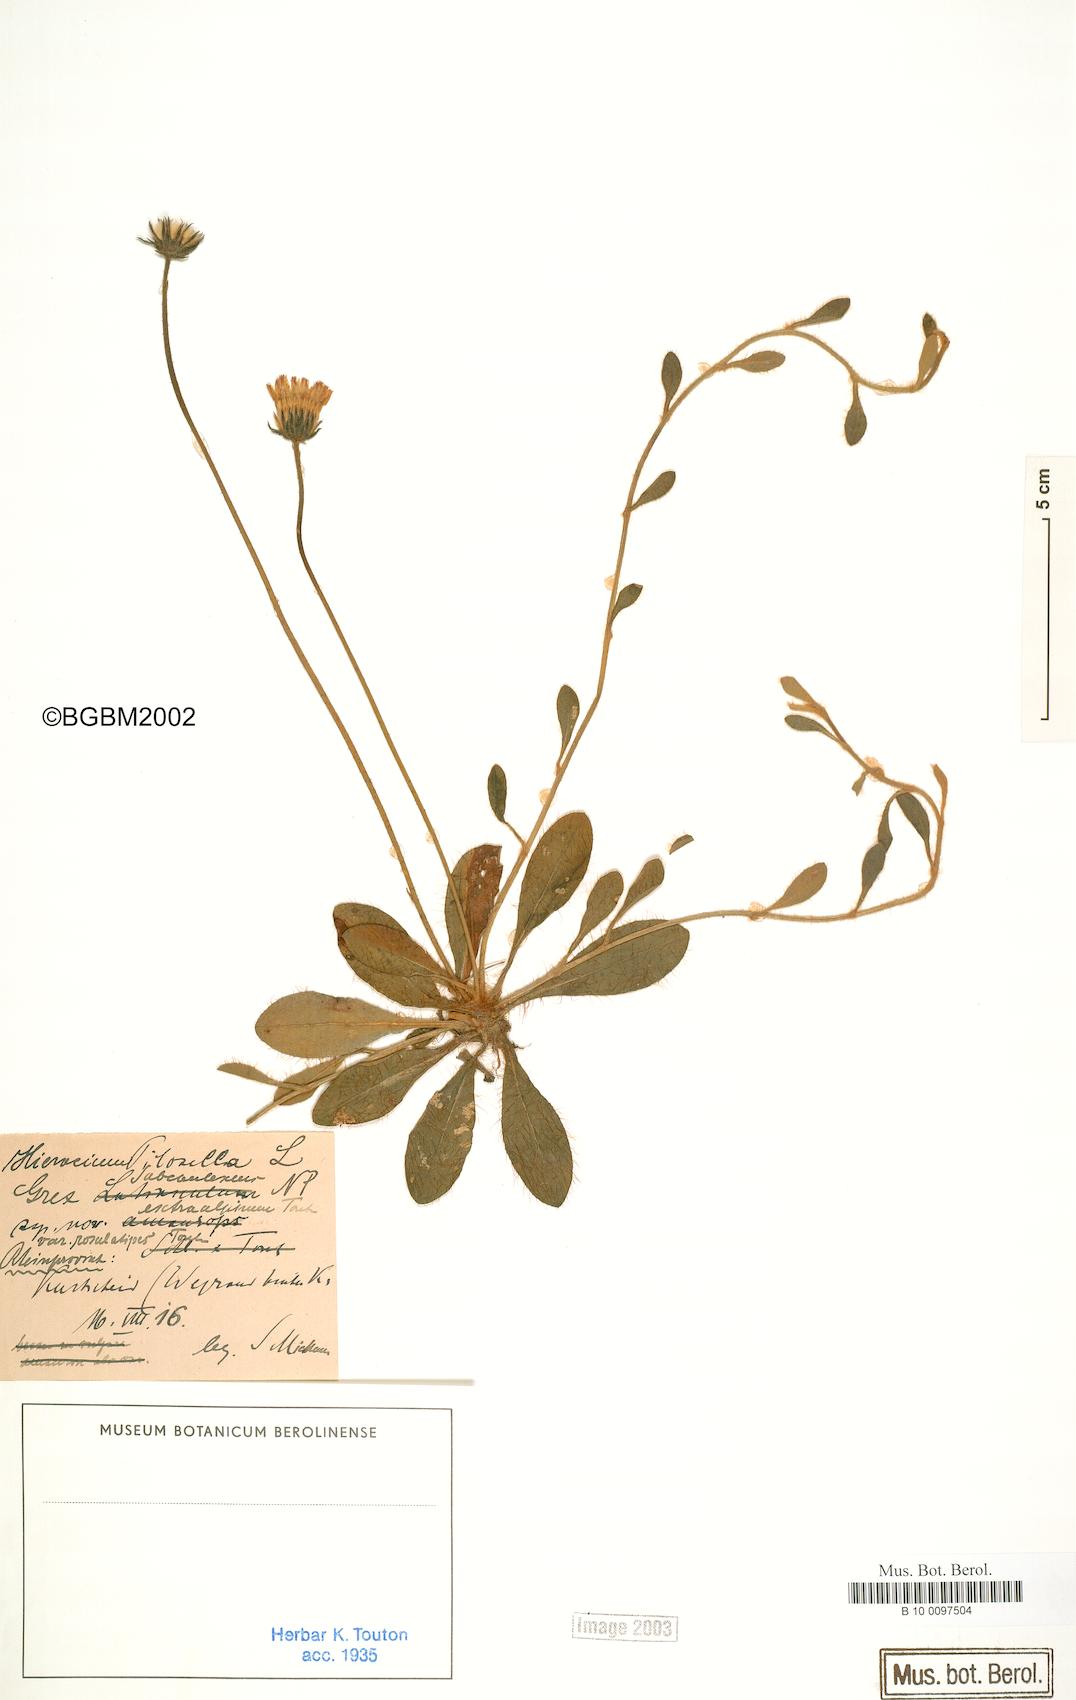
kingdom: Plantae
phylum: Tracheophyta
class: Magnoliopsida
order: Asterales
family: Asteraceae
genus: Pilosella
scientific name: Pilosella officinarum
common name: Mouse-ear hawkweed
